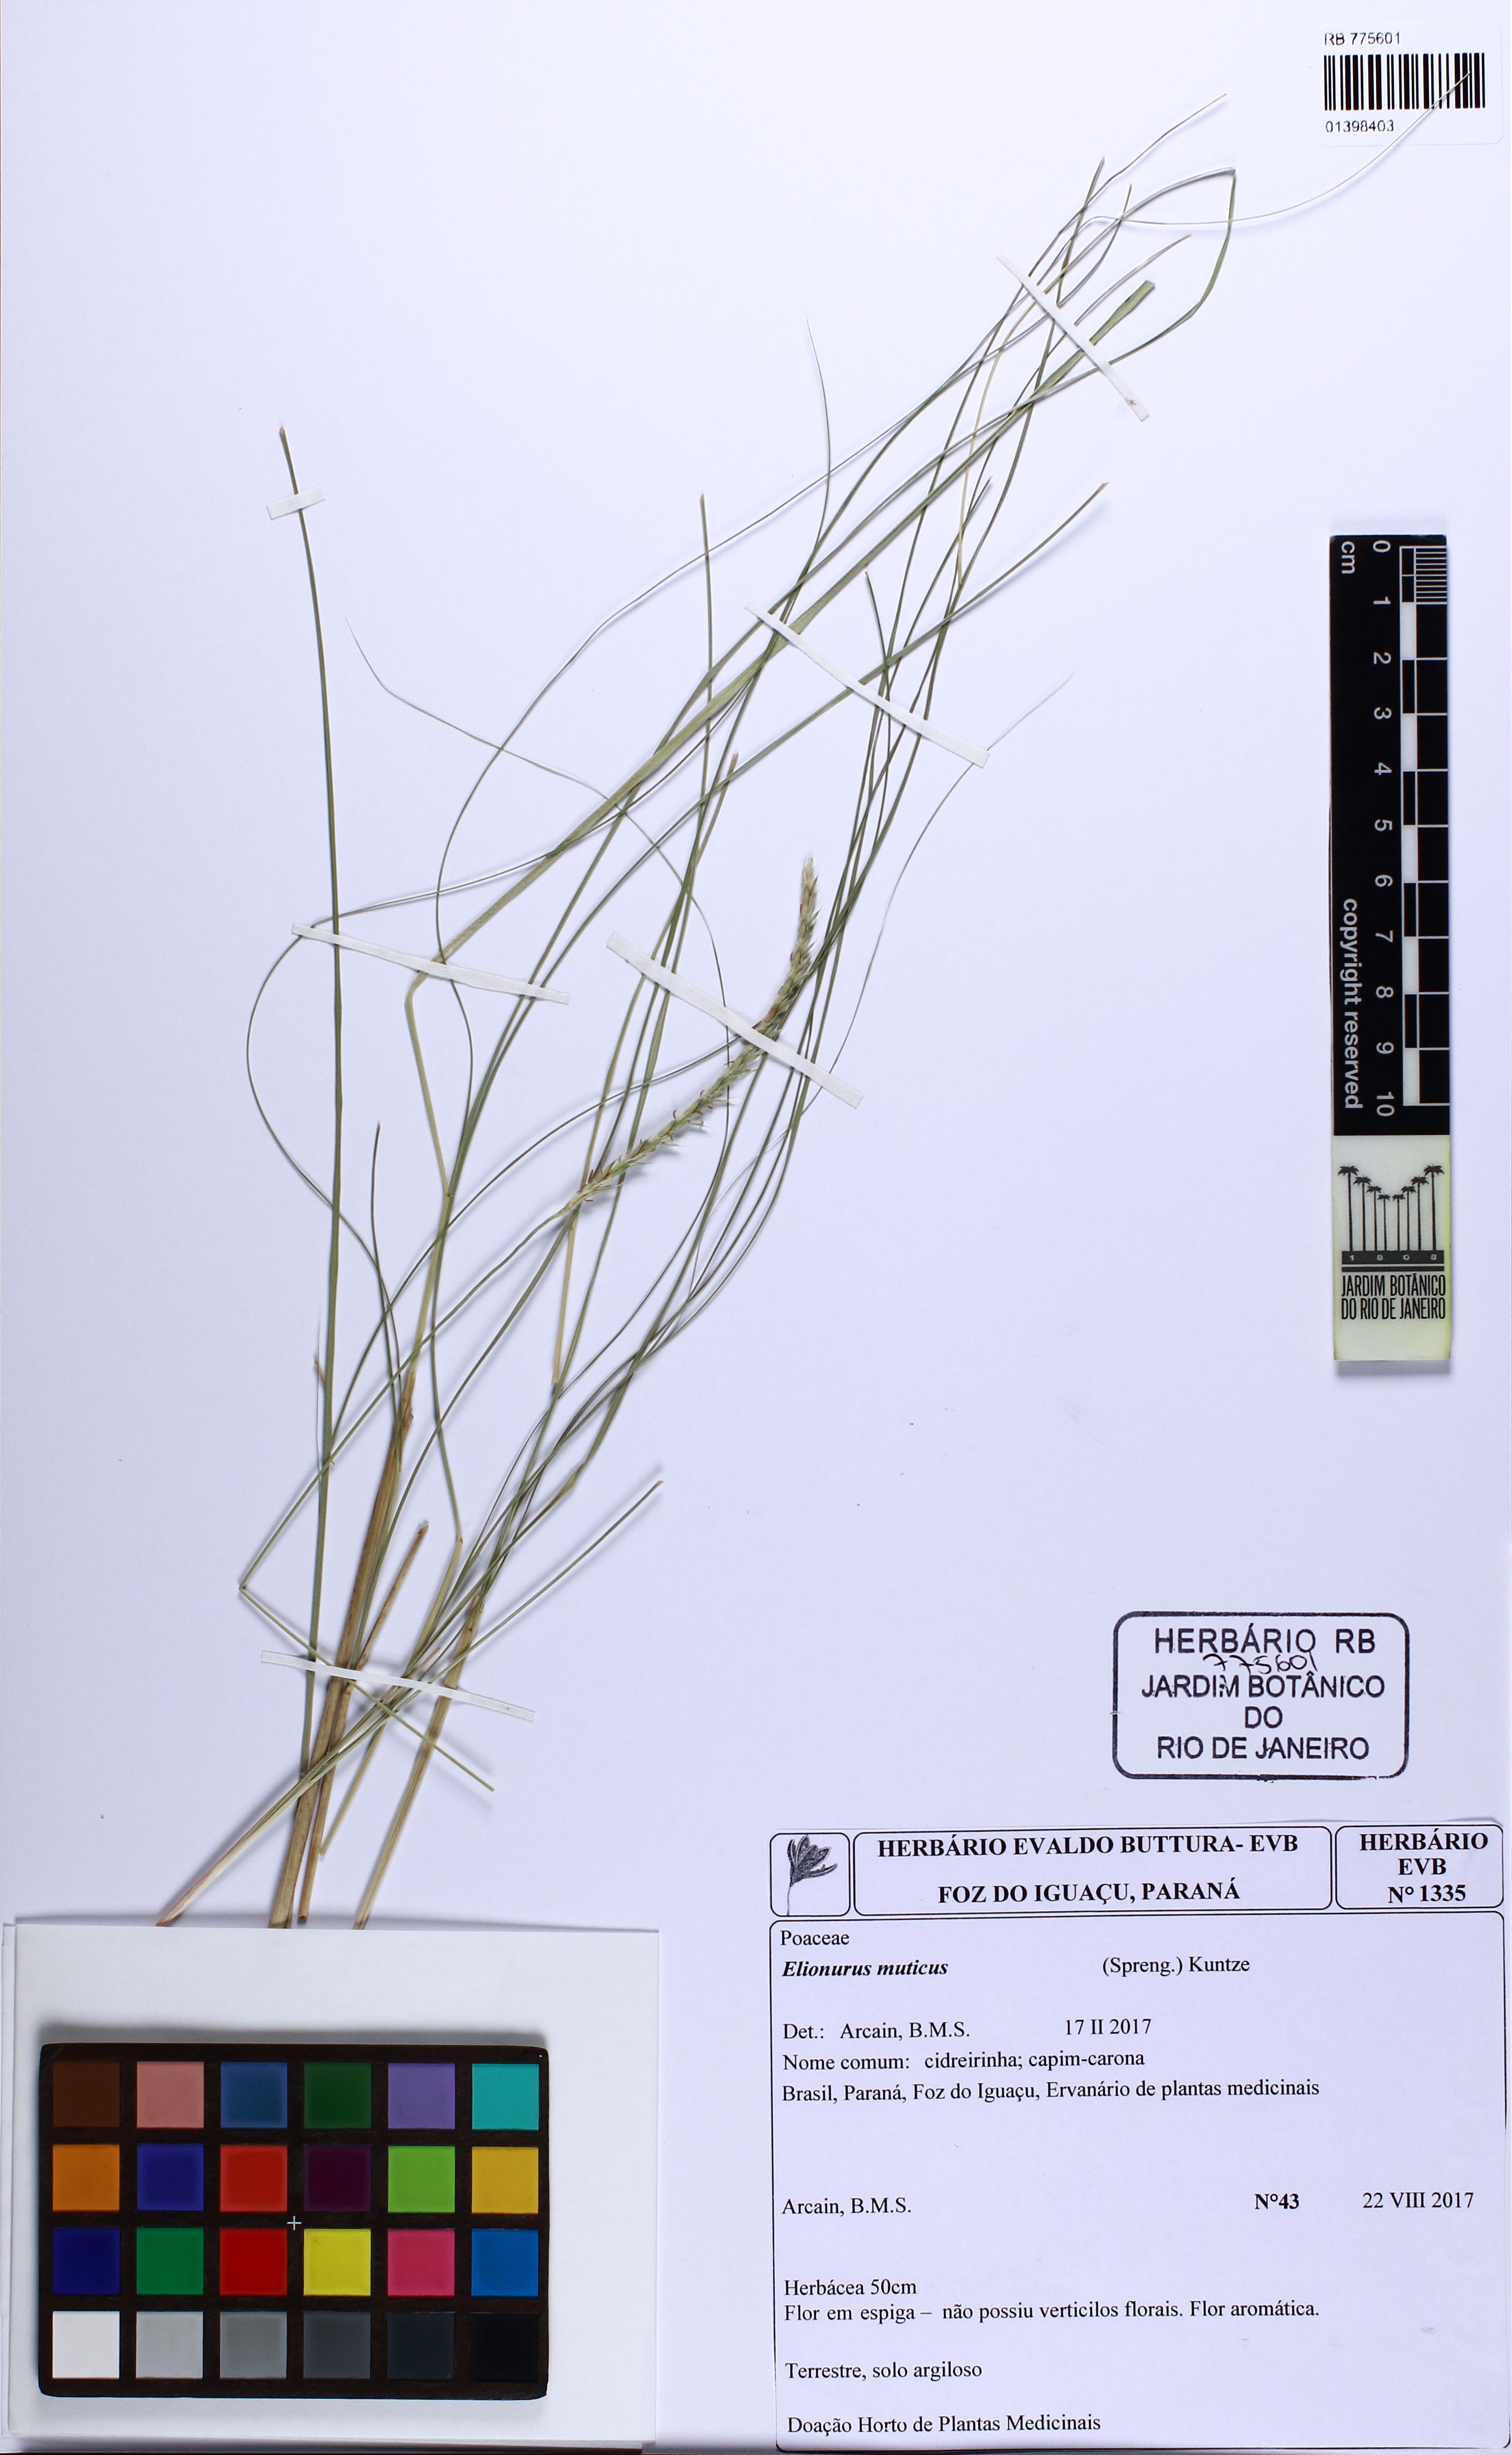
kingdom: Plantae
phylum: Tracheophyta
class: Liliopsida
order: Poales
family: Poaceae
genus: Elionurus
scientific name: Elionurus muticus
